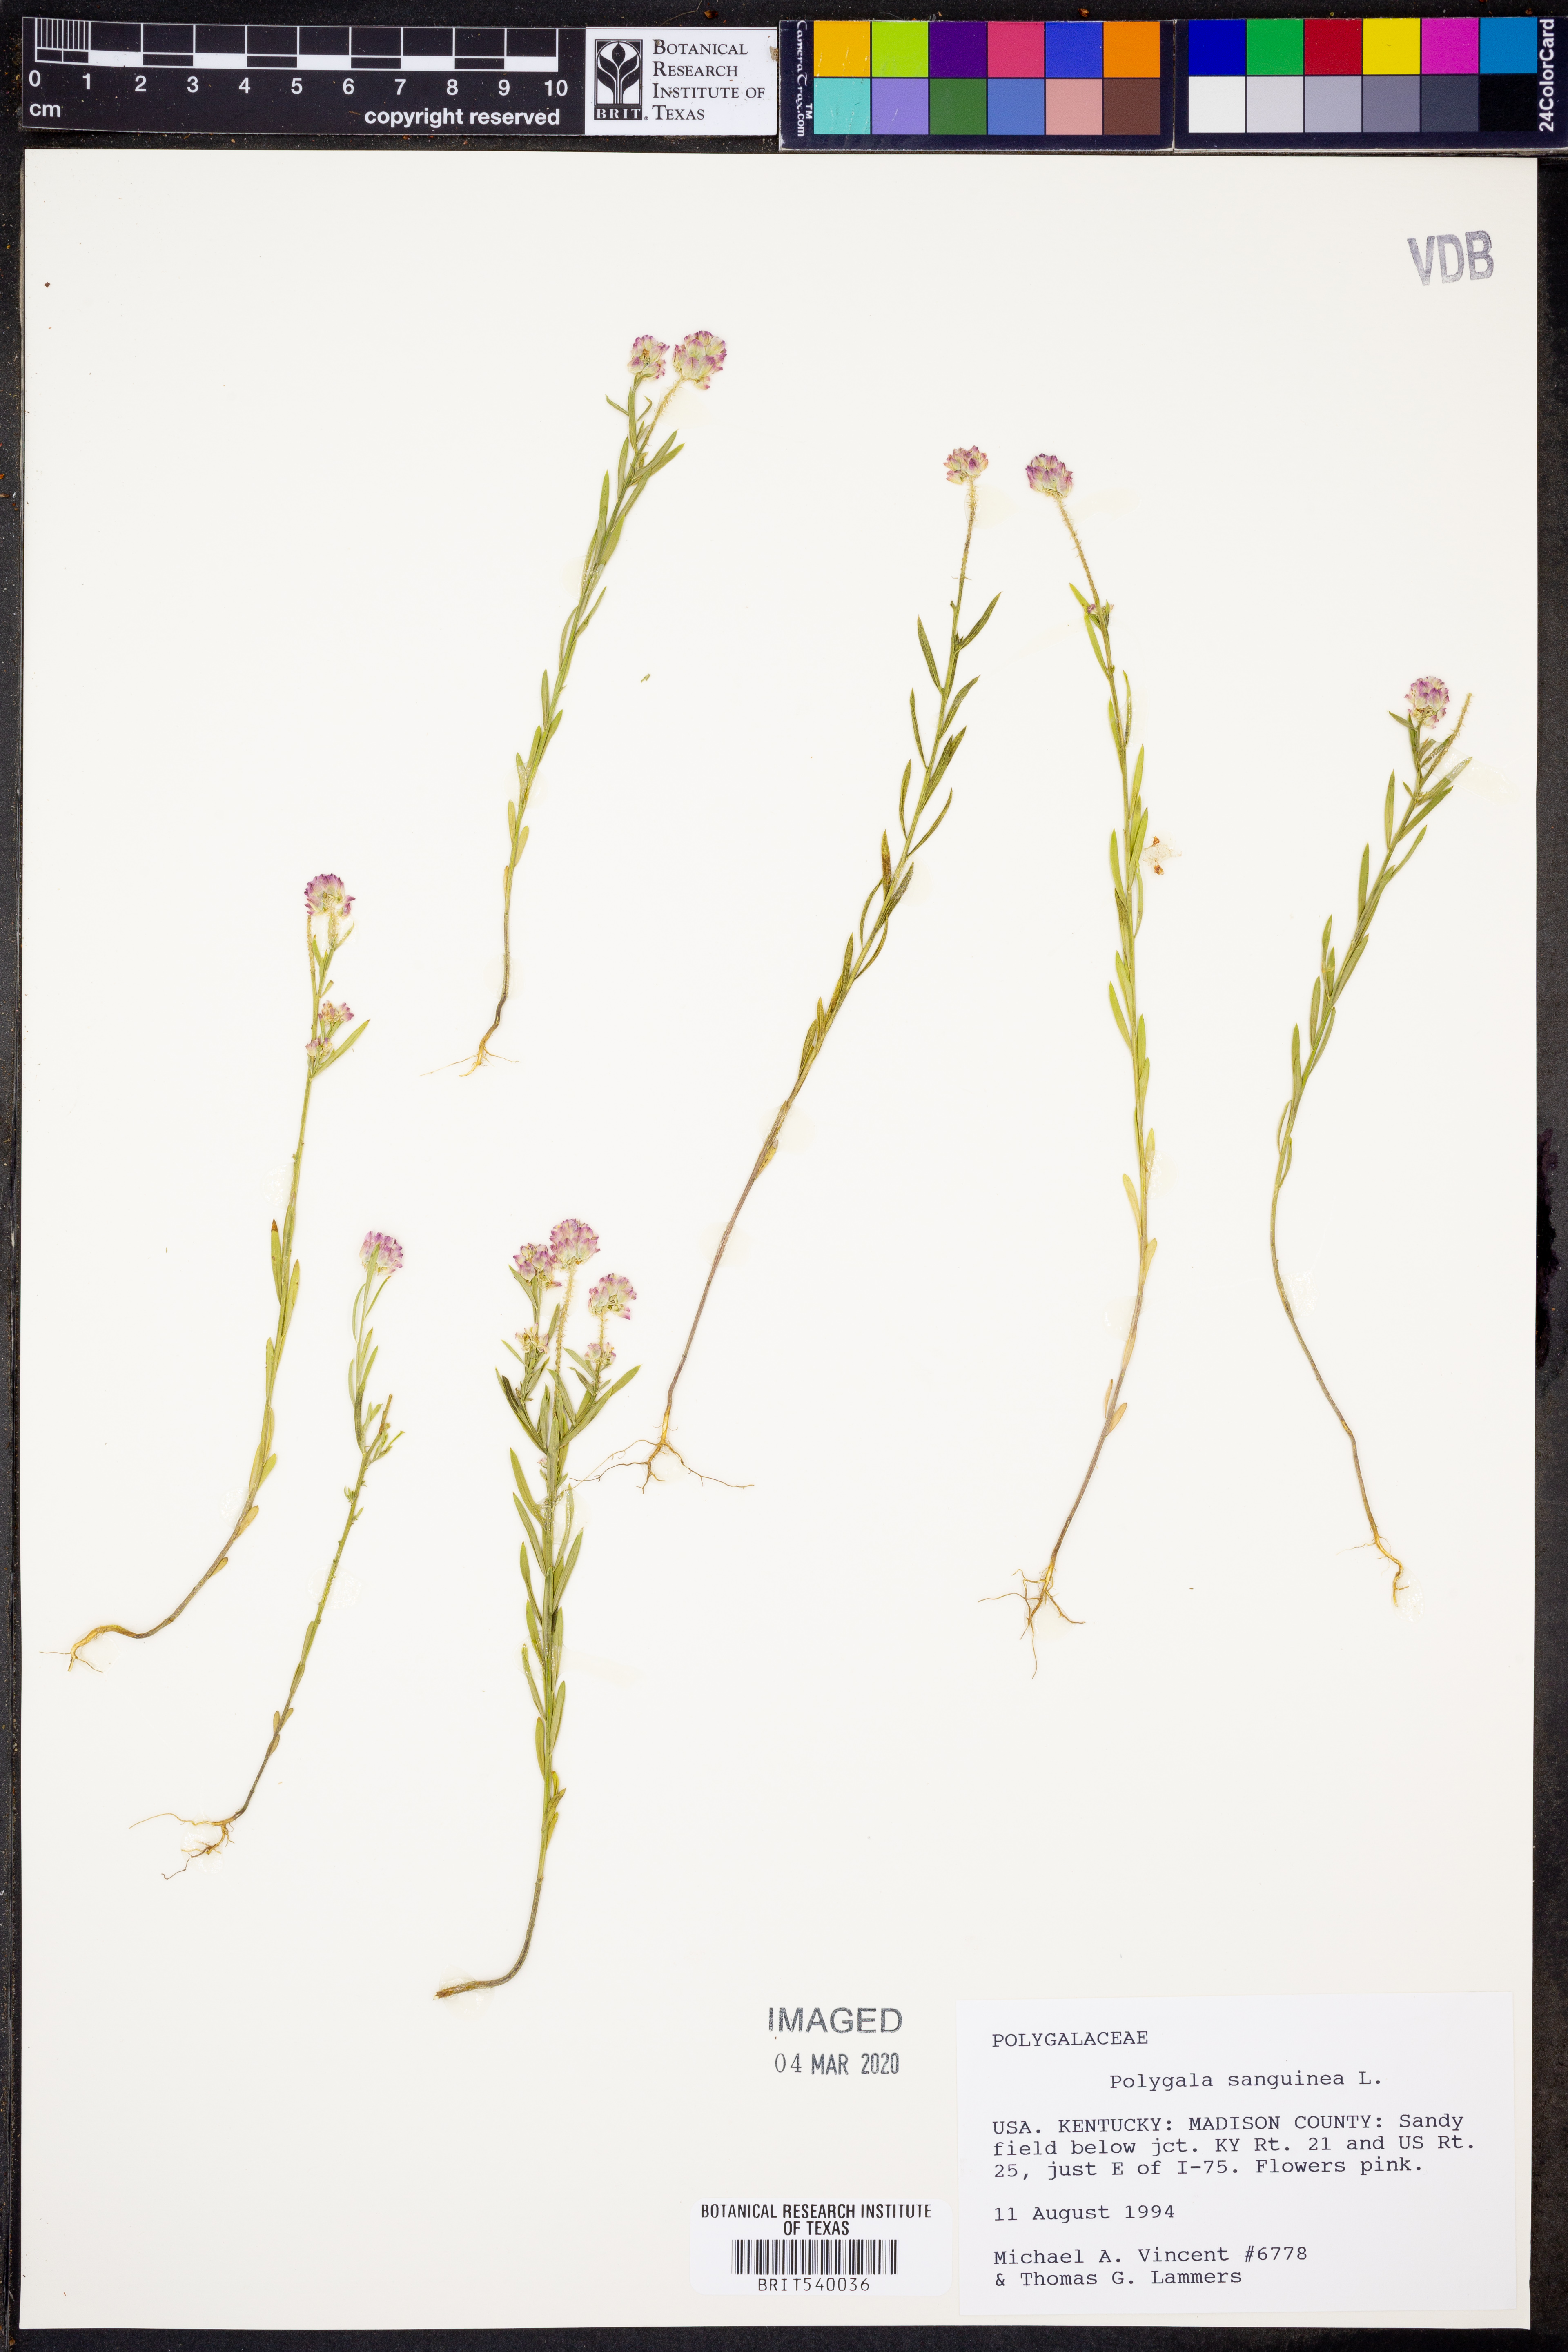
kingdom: Plantae
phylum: Tracheophyta
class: Magnoliopsida
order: Fabales
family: Polygalaceae
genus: Polygala
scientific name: Polygala sanguinea
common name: Blood milkwort
